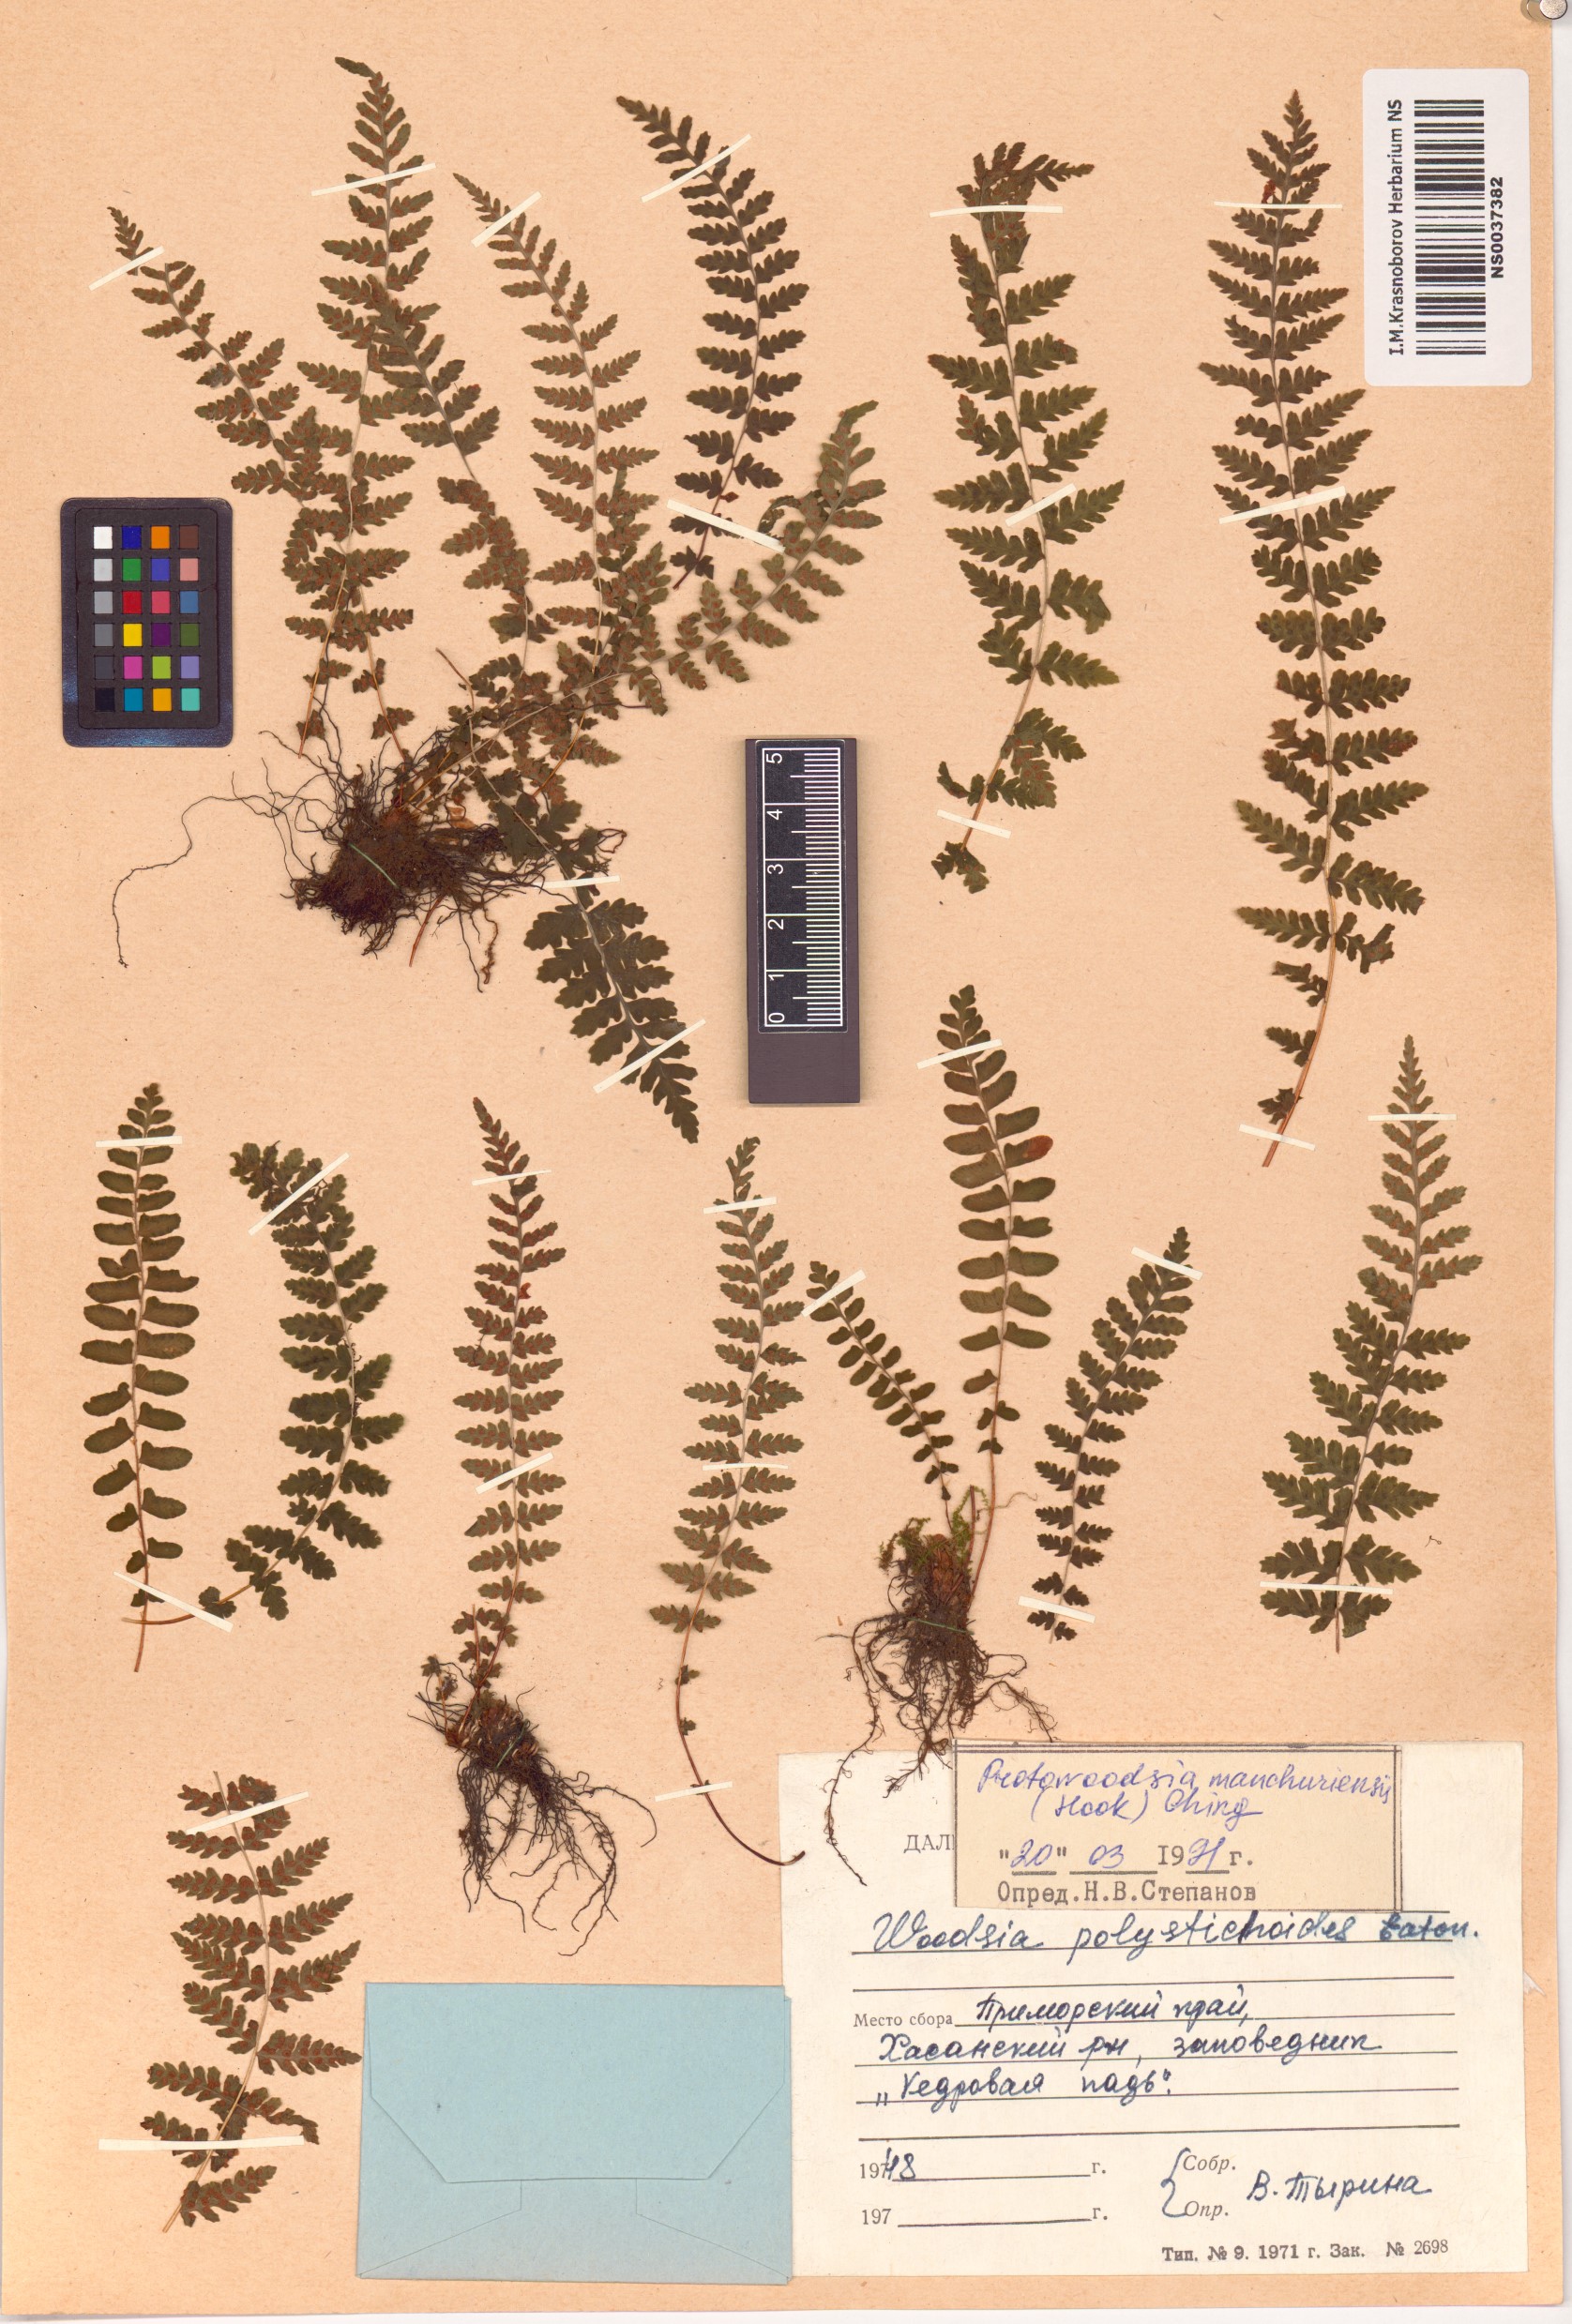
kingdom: Plantae
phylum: Tracheophyta
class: Polypodiopsida
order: Polypodiales
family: Woodsiaceae
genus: Physematium
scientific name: Physematium manchuriense
